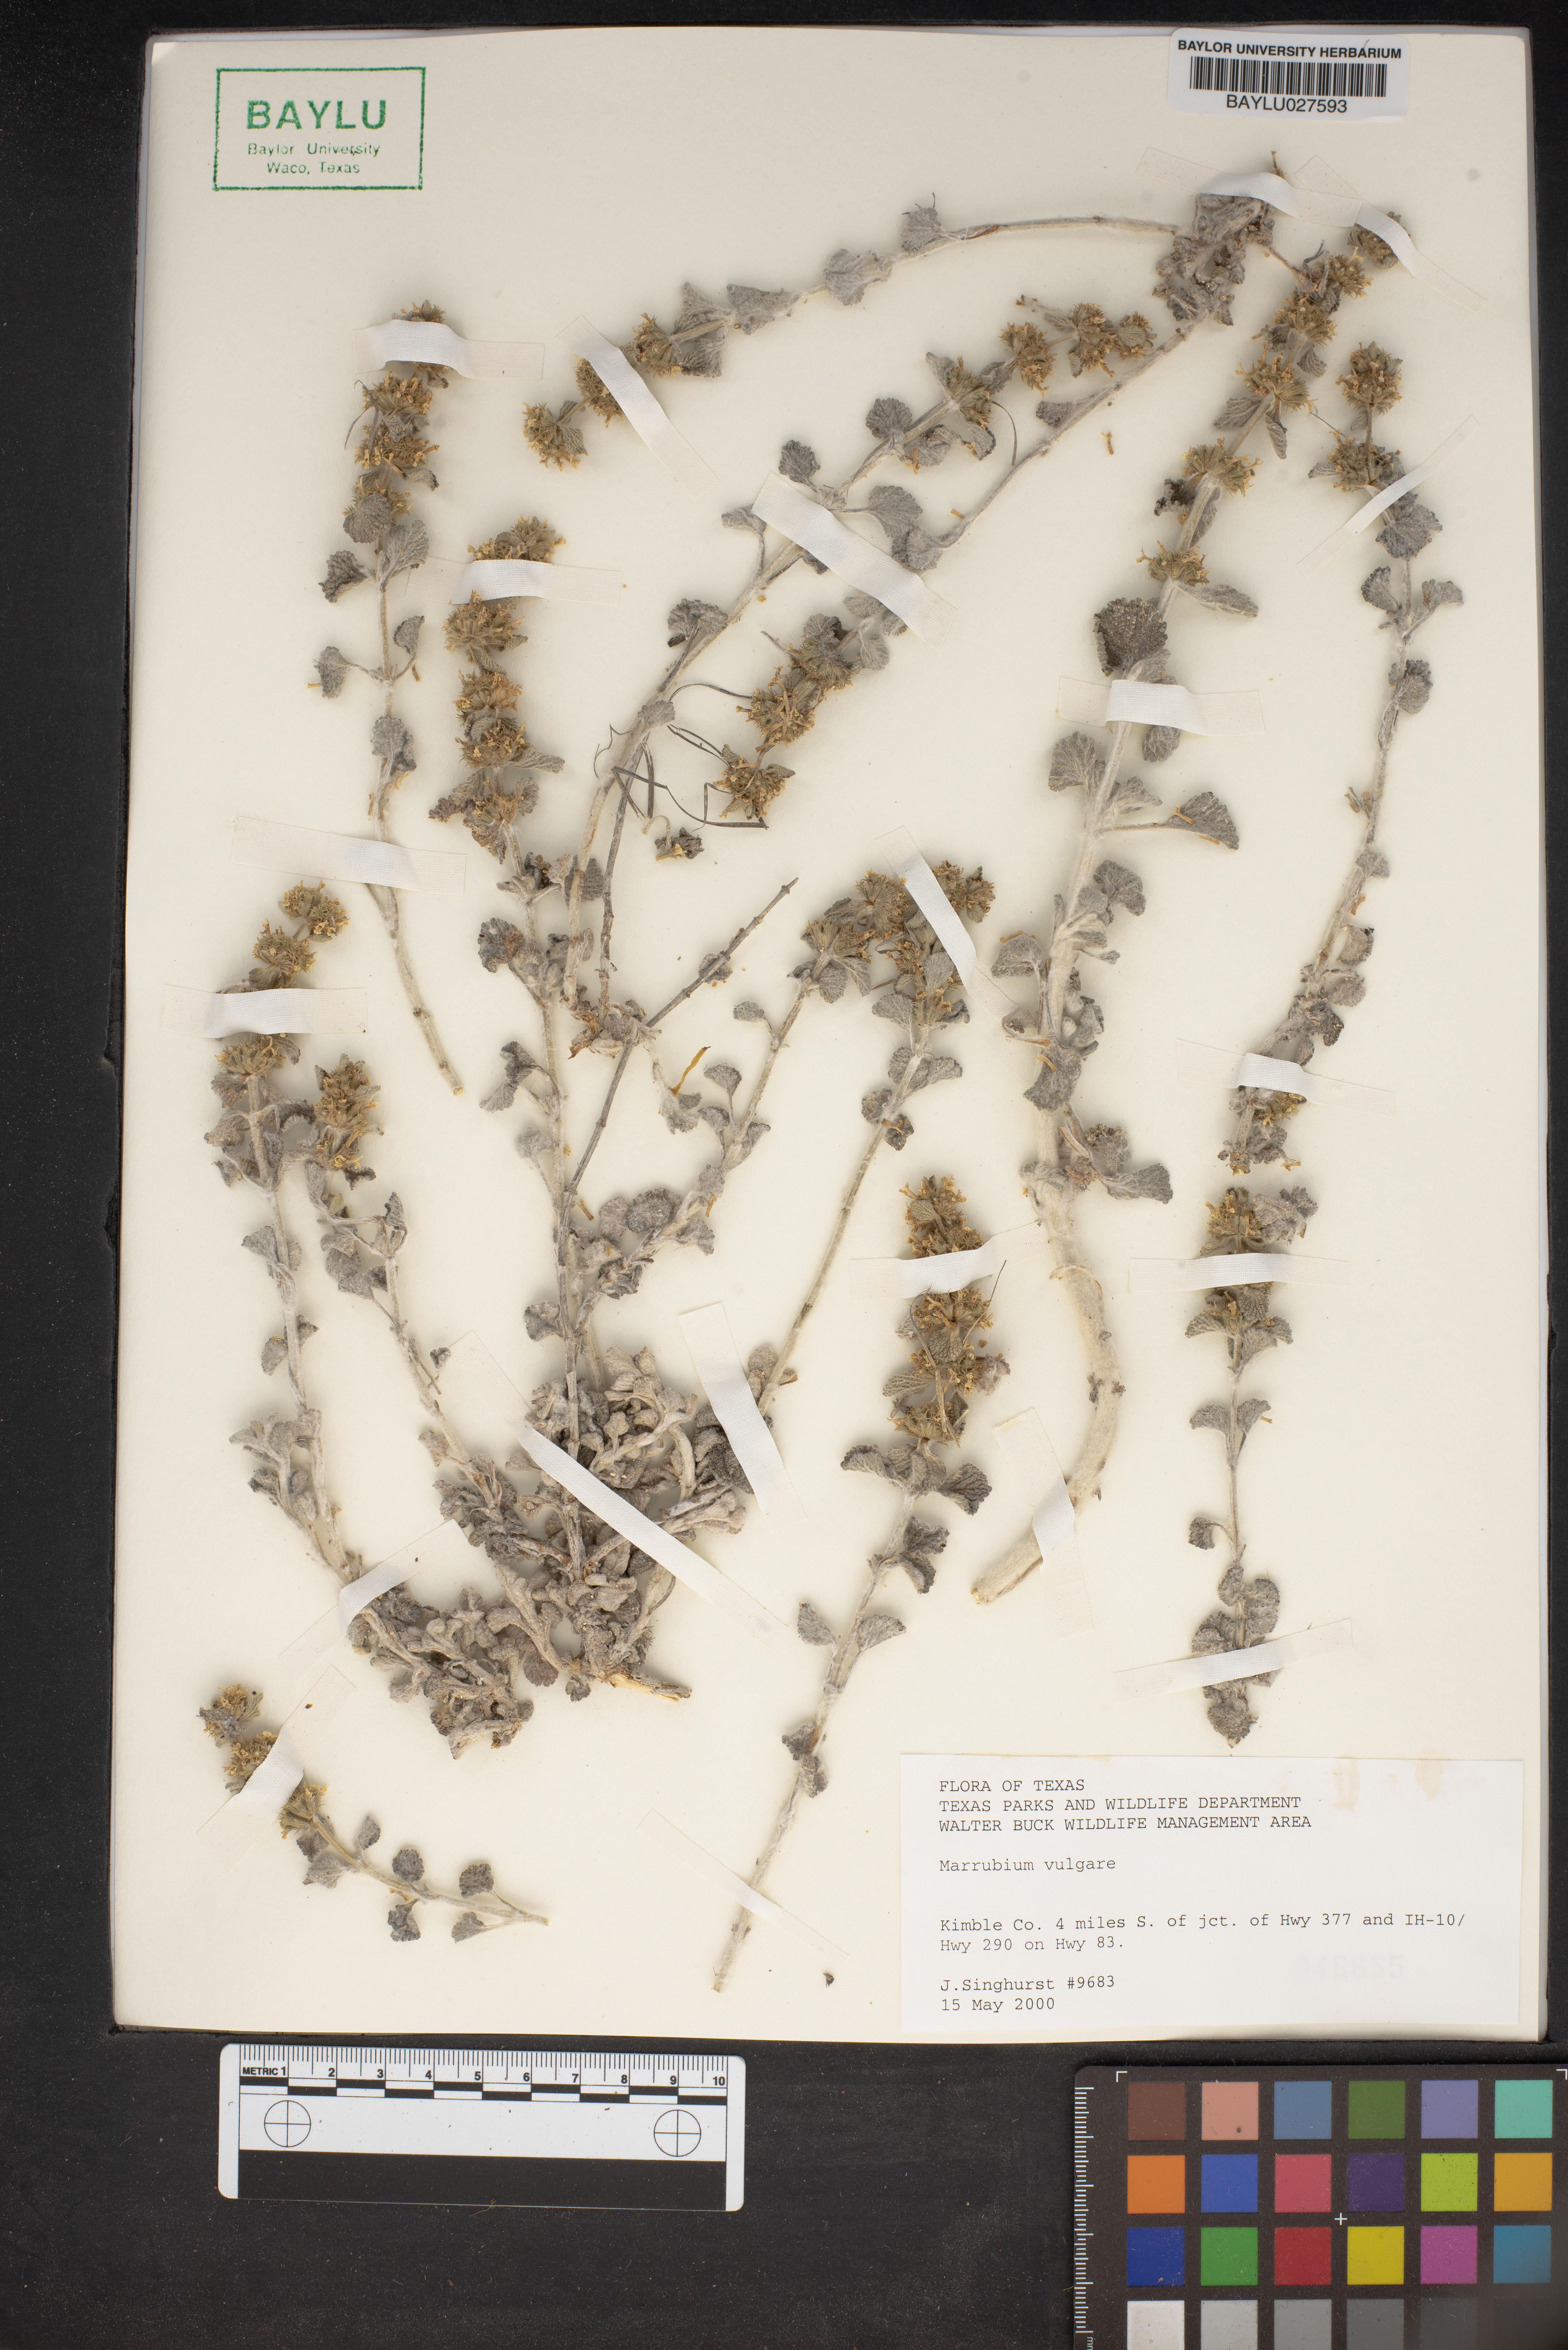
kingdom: Plantae
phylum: Tracheophyta
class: Magnoliopsida
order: Lamiales
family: Lamiaceae
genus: Marrubium
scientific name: Marrubium vulgare
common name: Horehound
